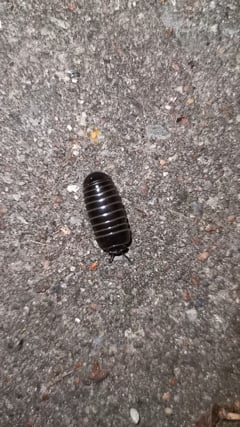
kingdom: Animalia
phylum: Arthropoda
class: Diplopoda
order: Glomerida
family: Glomeridae
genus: Glomeris
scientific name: Glomeris marginata
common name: Bordered pill millipede
